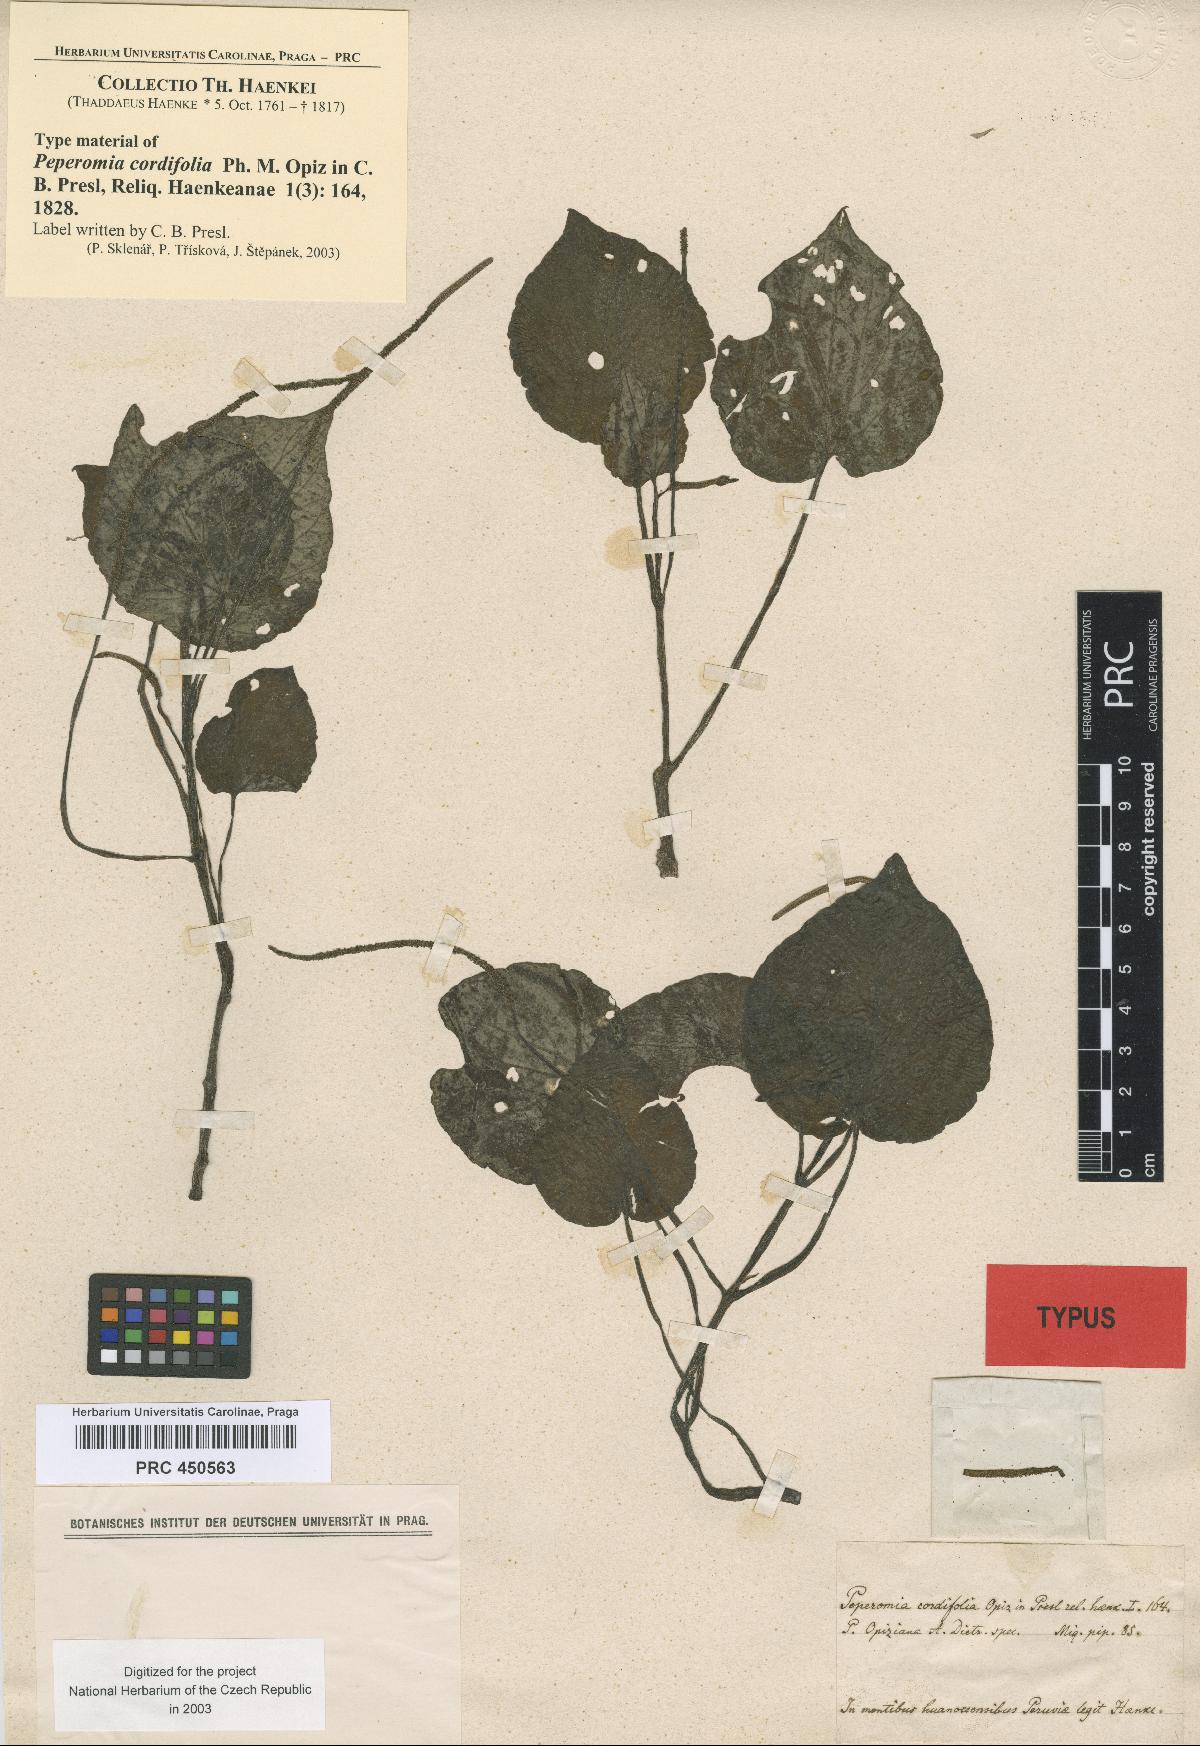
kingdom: Plantae
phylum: Tracheophyta
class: Magnoliopsida
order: Piperales
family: Piperaceae
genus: Peperomia
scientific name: Peperomia dependens
